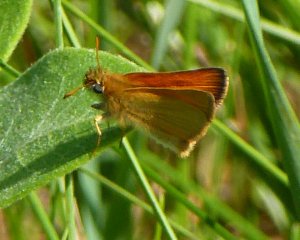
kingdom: Animalia
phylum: Arthropoda
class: Insecta
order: Lepidoptera
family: Hesperiidae
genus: Ancyloxypha
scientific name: Ancyloxypha numitor
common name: Least Skipper
